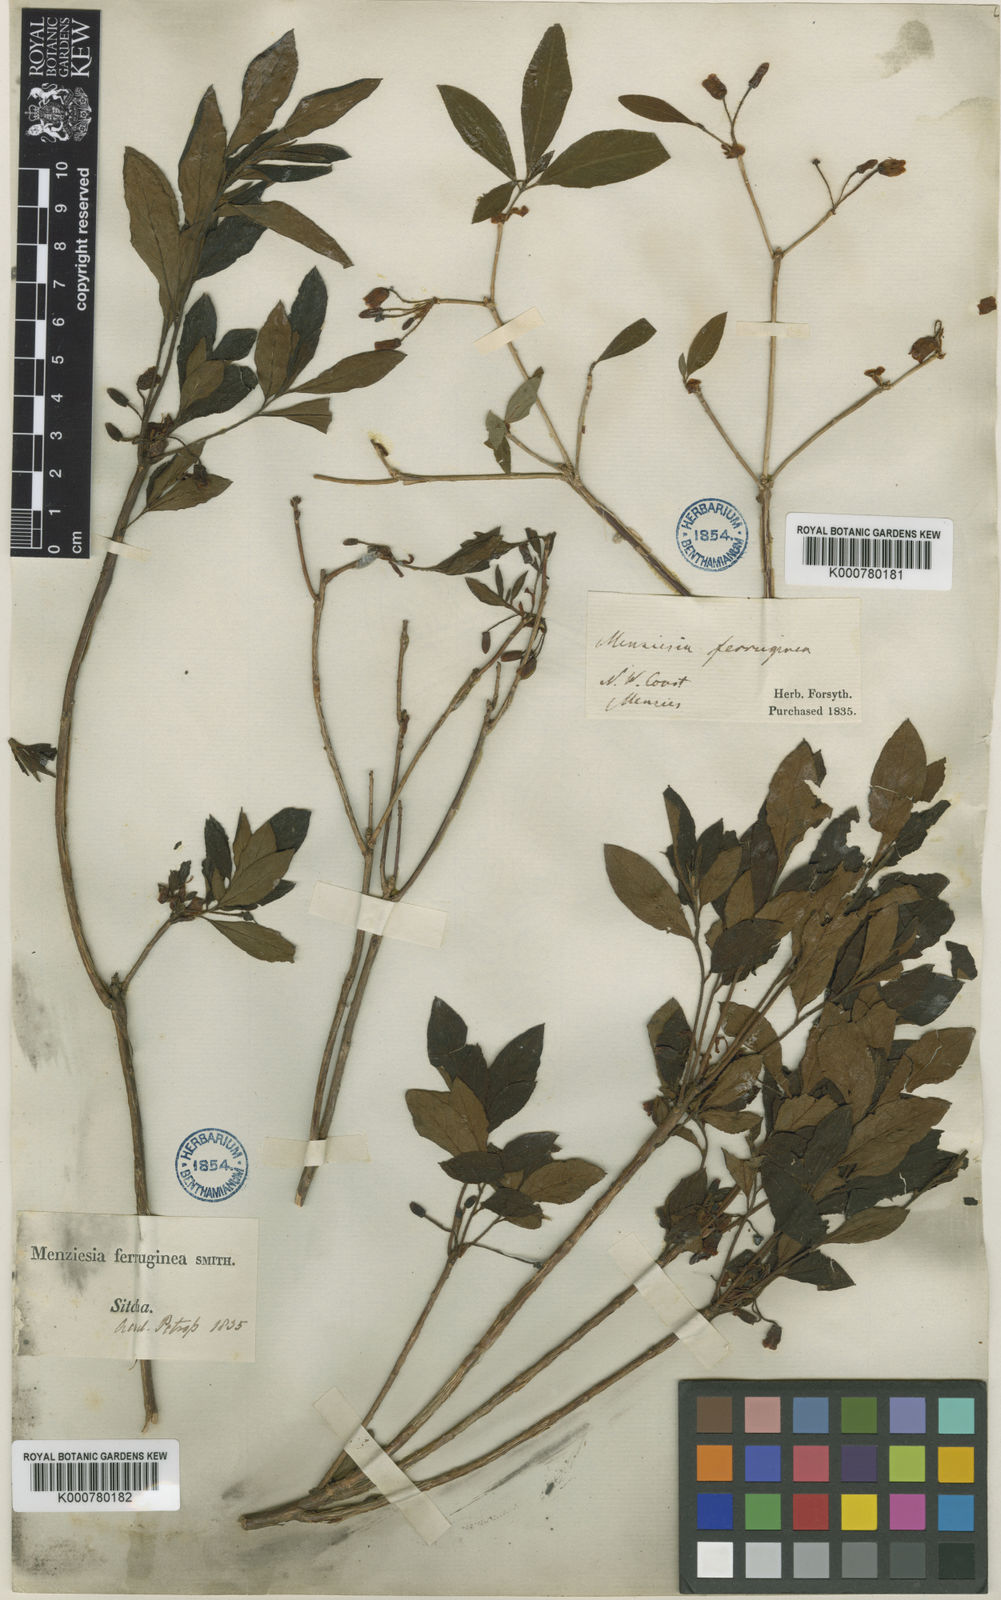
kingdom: Plantae
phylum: Tracheophyta
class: Magnoliopsida
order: Ericales
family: Ericaceae
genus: Rhododendron
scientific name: Rhododendron menziesii
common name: Pacific menziesia
